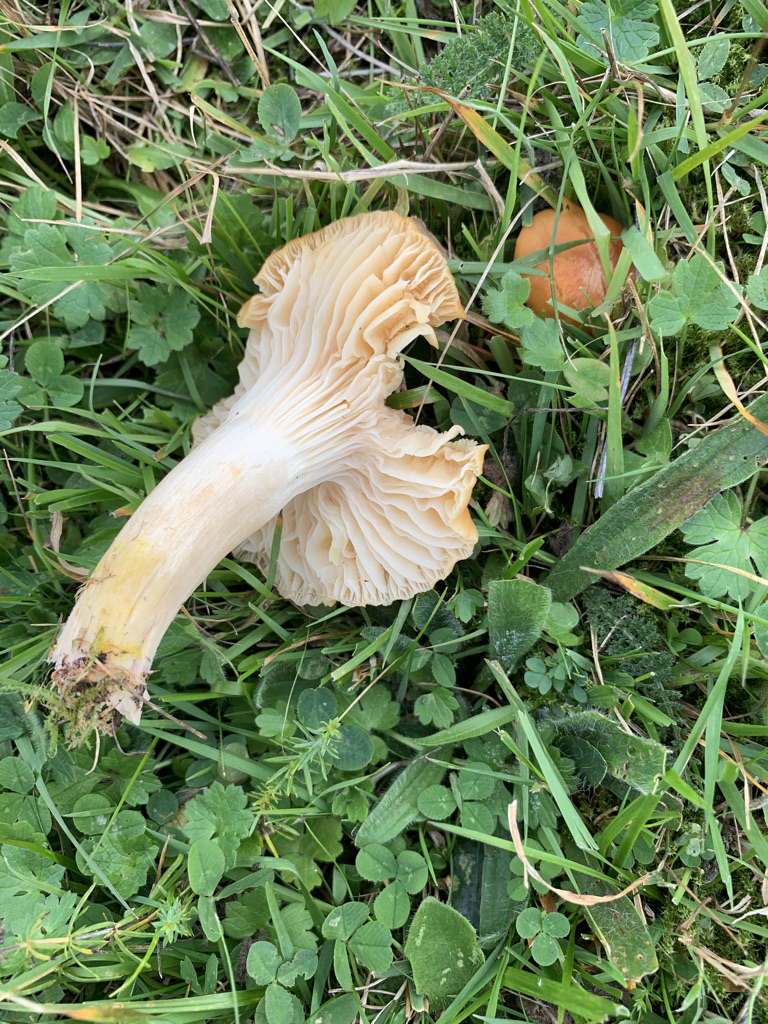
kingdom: Fungi
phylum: Basidiomycota
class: Agaricomycetes
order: Agaricales
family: Hygrophoraceae
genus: Cuphophyllus
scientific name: Cuphophyllus pratensis
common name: eng-vokshat
